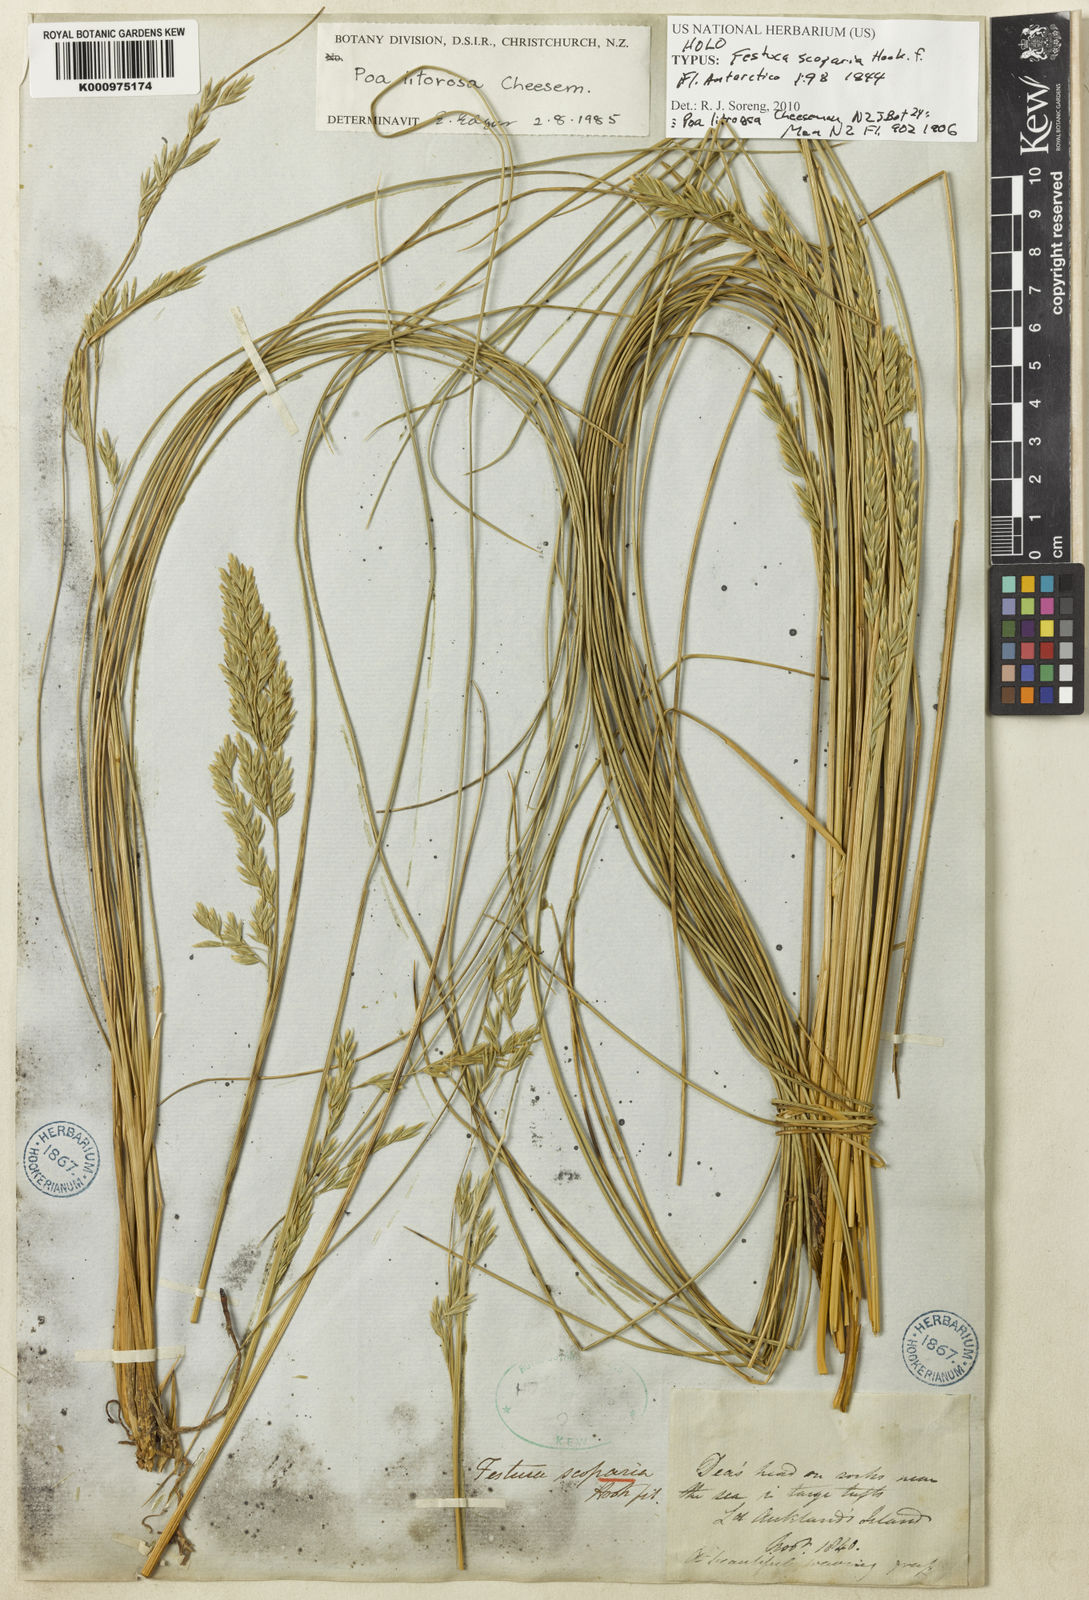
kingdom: Plantae
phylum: Tracheophyta
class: Liliopsida
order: Poales
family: Poaceae
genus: Poa
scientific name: Poa litorosa
